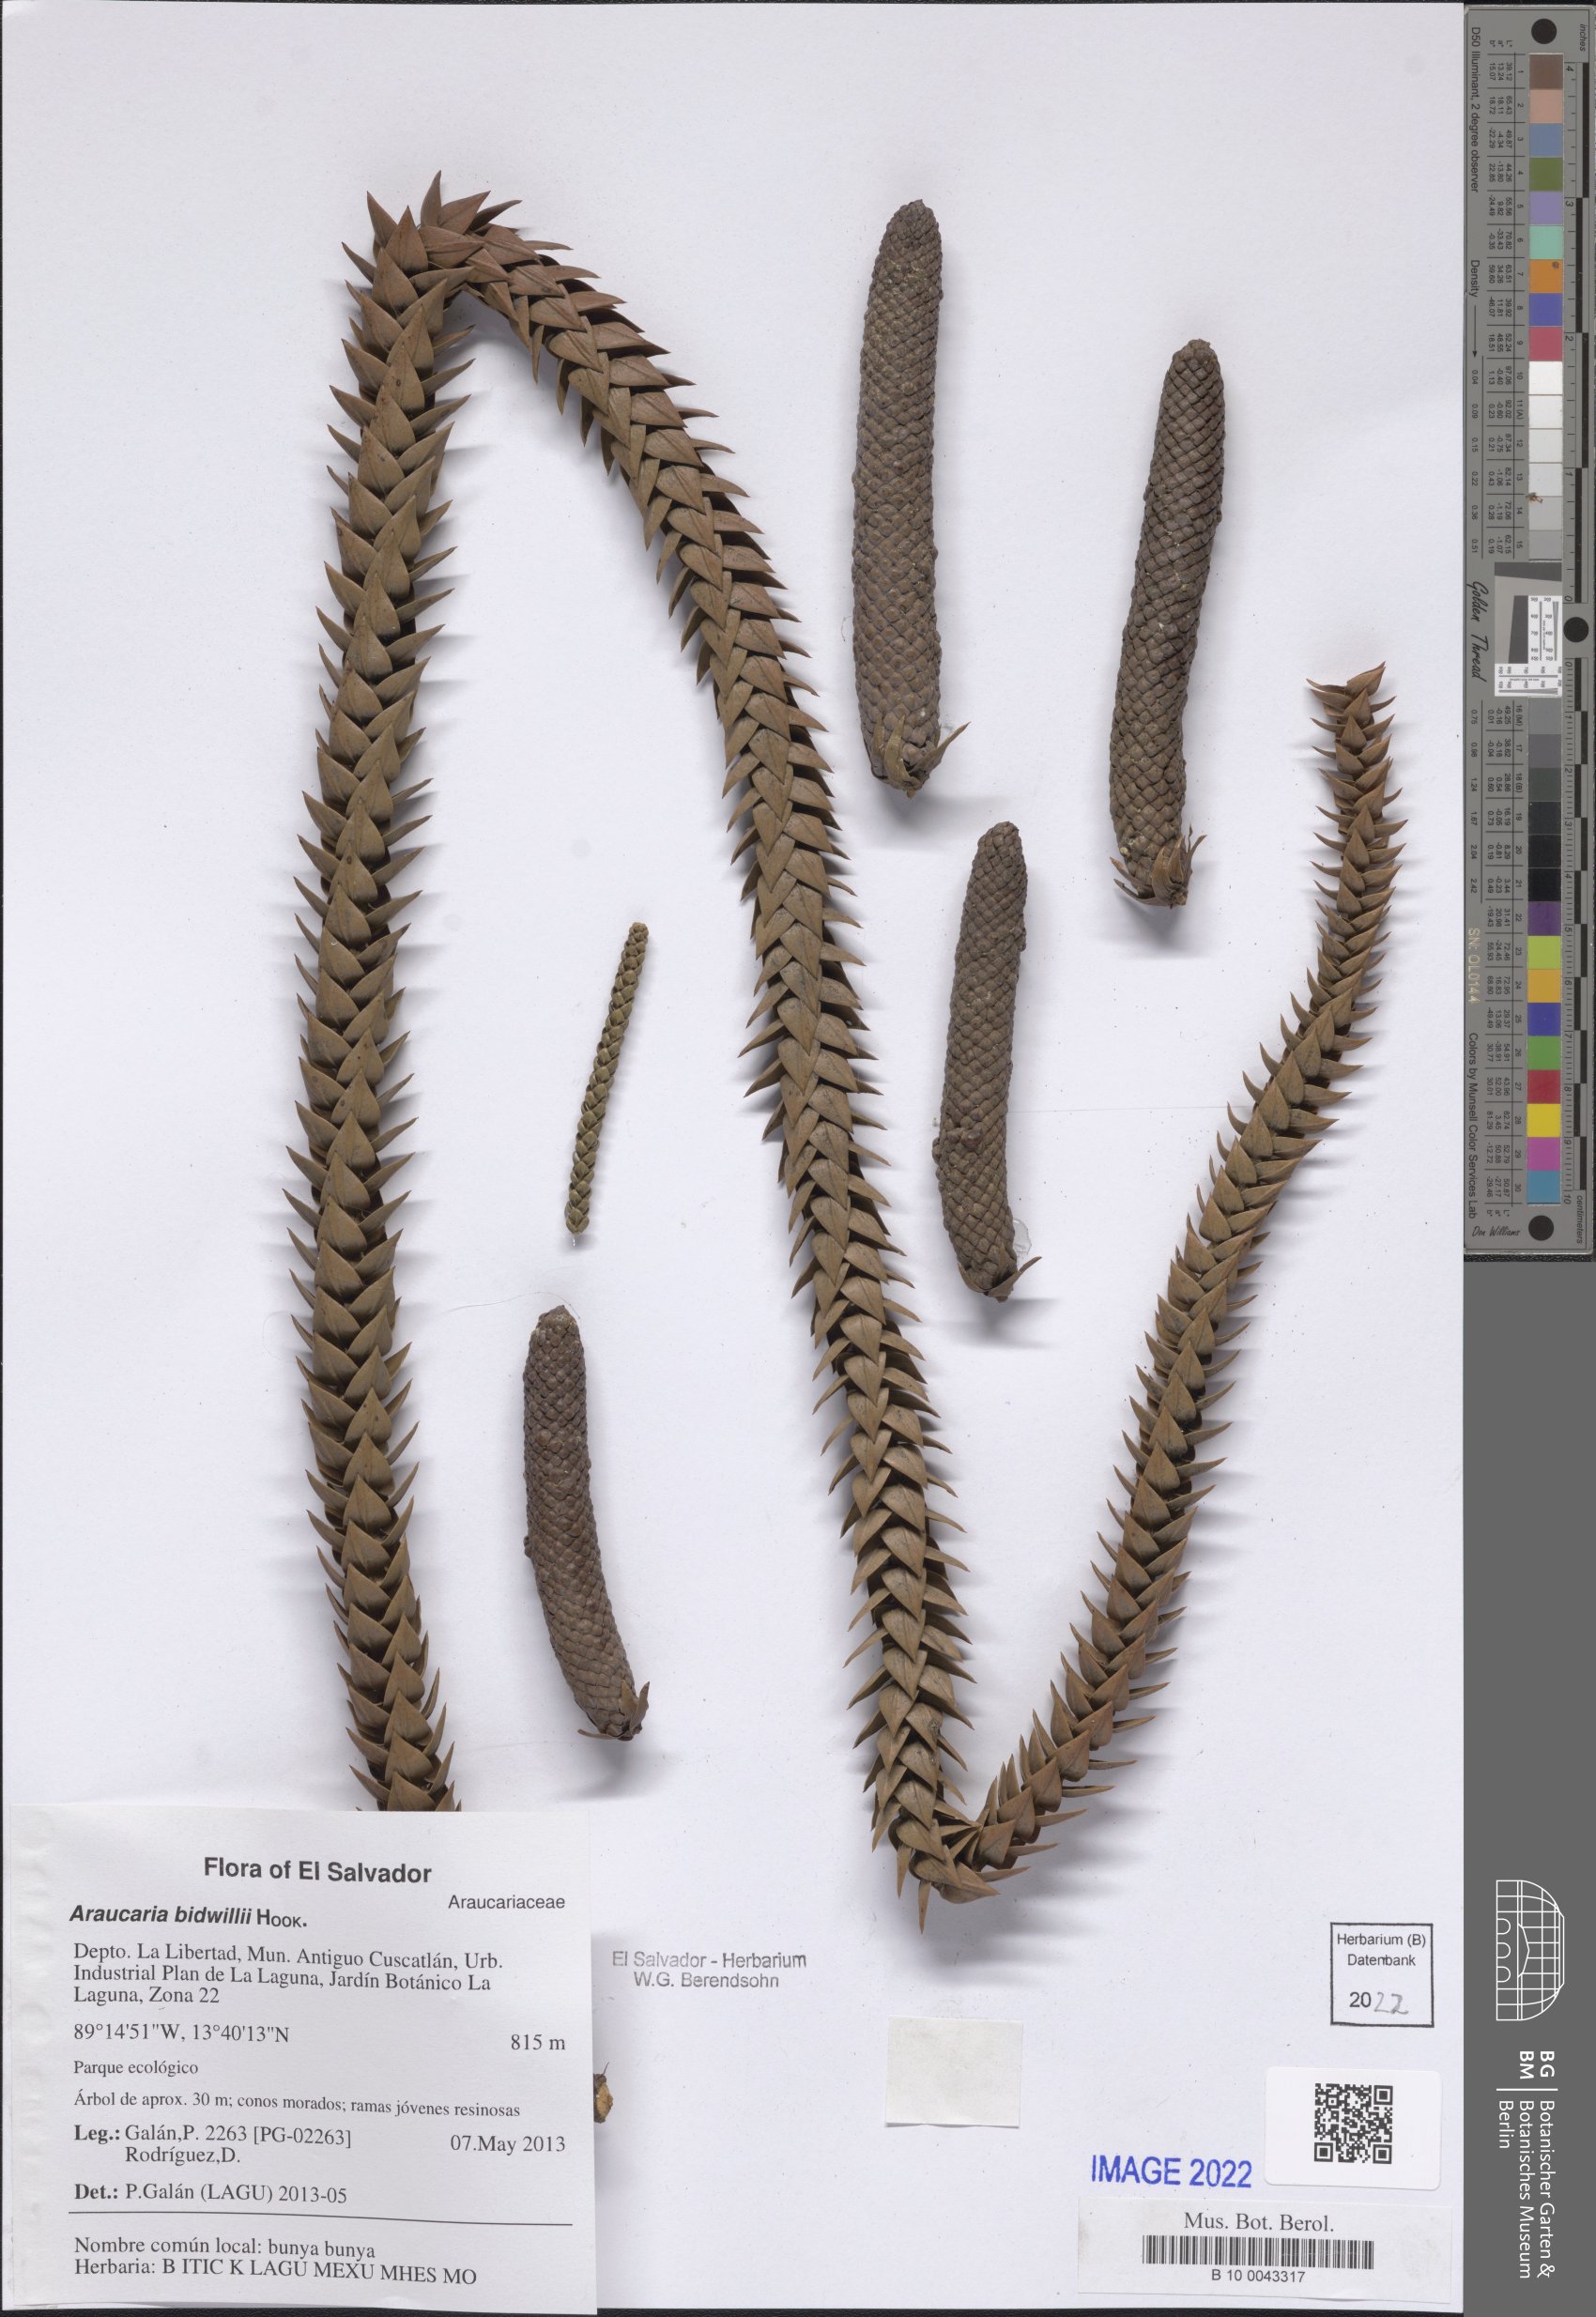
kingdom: Plantae
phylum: Tracheophyta
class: Pinopsida
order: Pinales
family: Araucariaceae
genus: Araucaria
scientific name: Araucaria bidwillii
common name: Moreton-bay-pine
